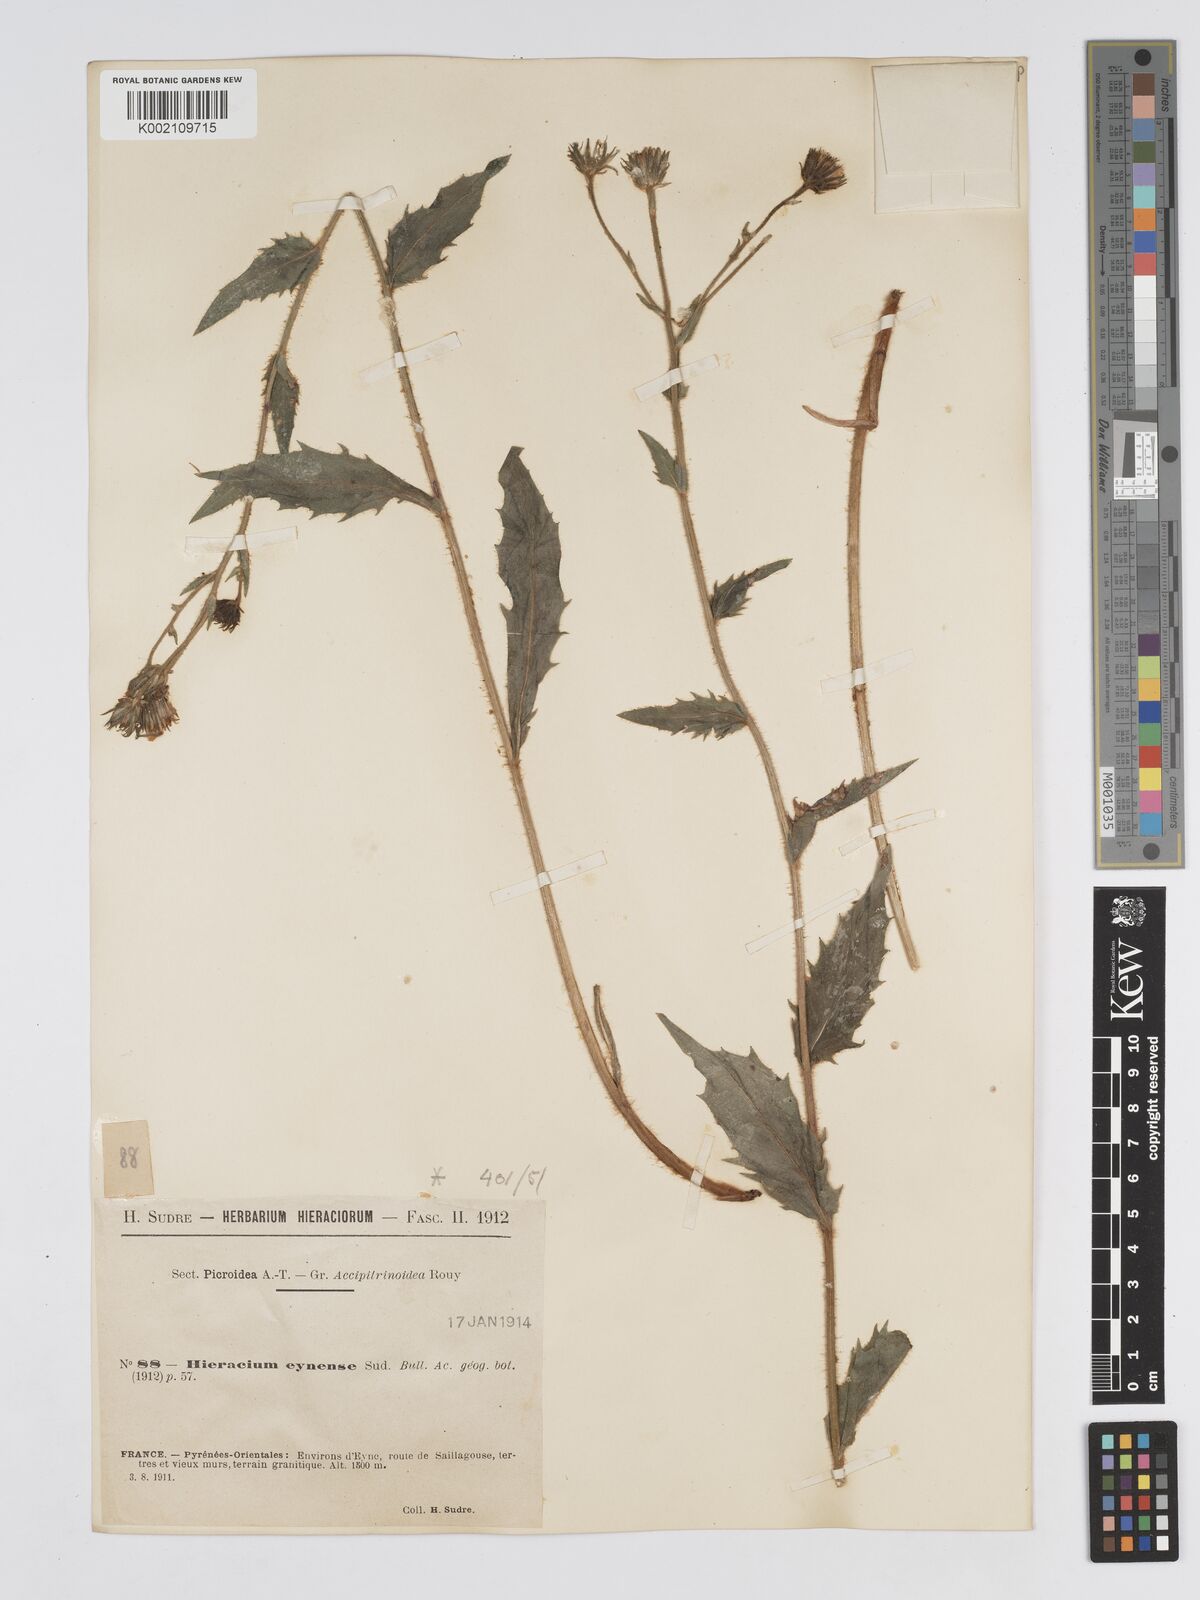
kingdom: Plantae
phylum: Tracheophyta
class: Magnoliopsida
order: Asterales
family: Asteraceae
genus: Hieracium
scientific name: Hieracium
